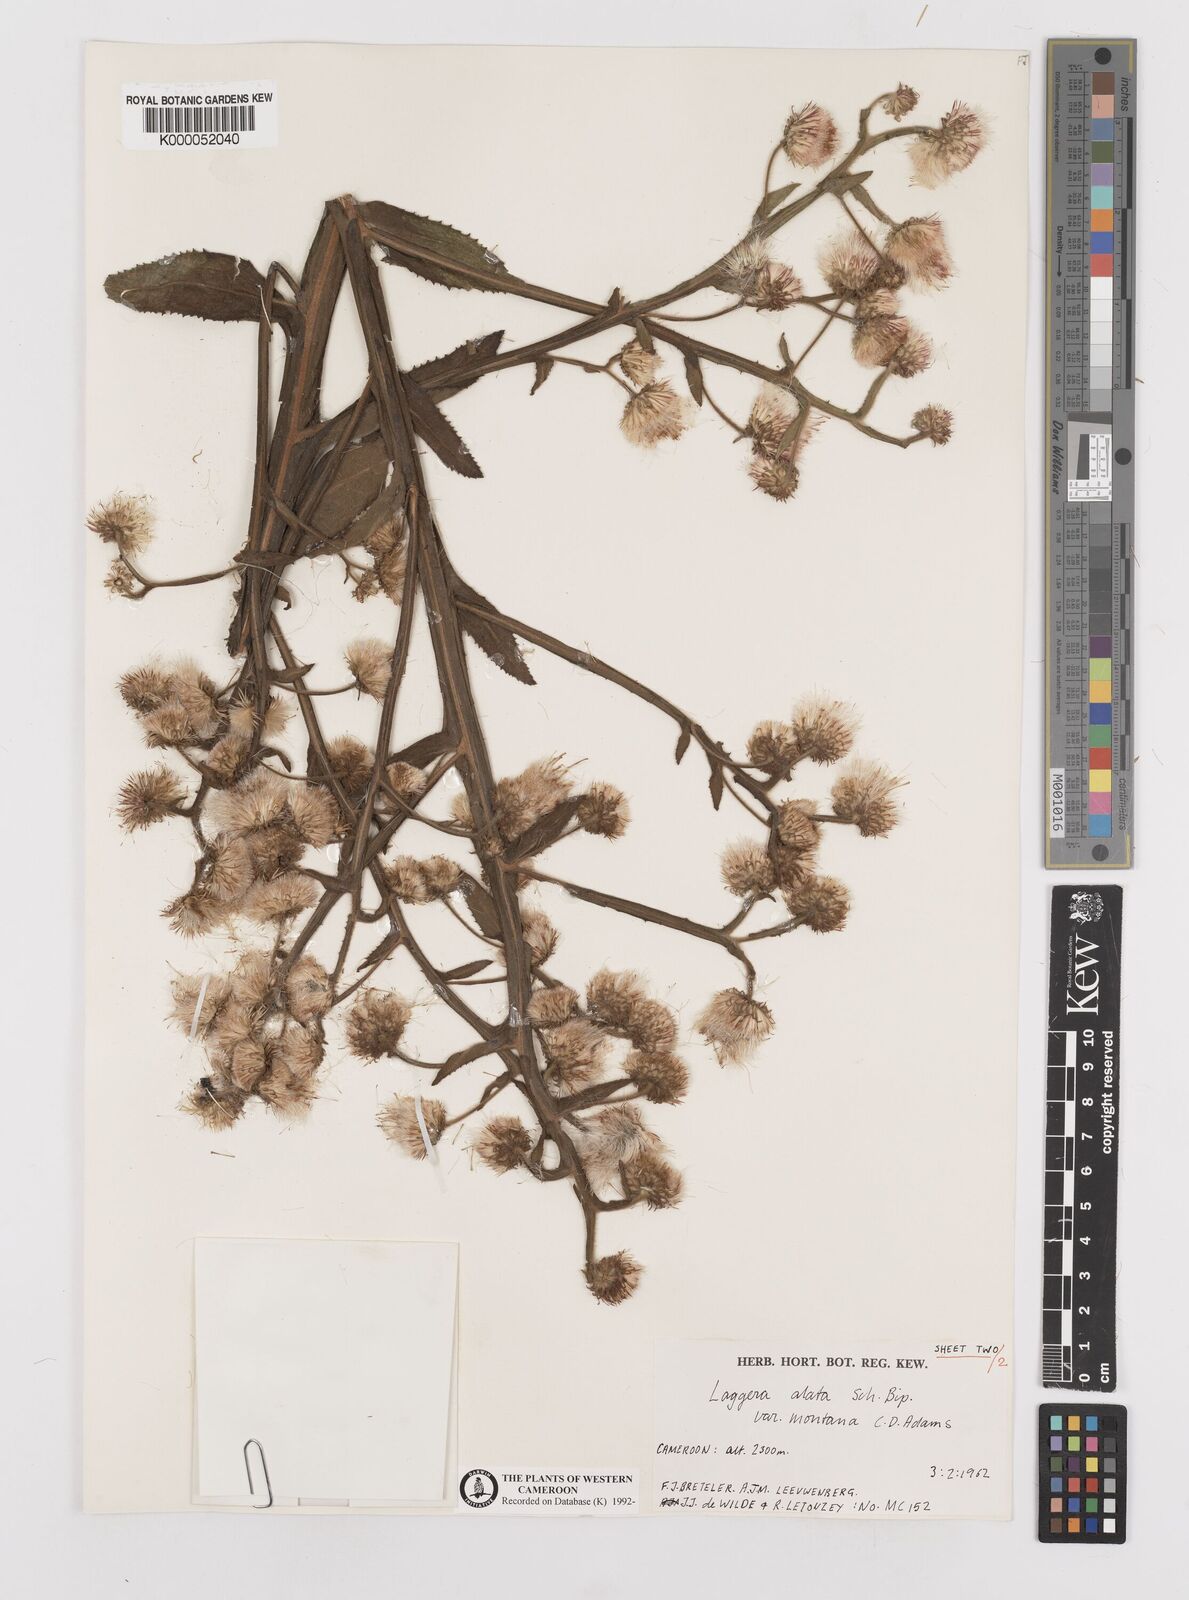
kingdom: Plantae
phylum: Tracheophyta
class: Magnoliopsida
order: Asterales
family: Asteraceae
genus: Laggera
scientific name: Laggera crispata
